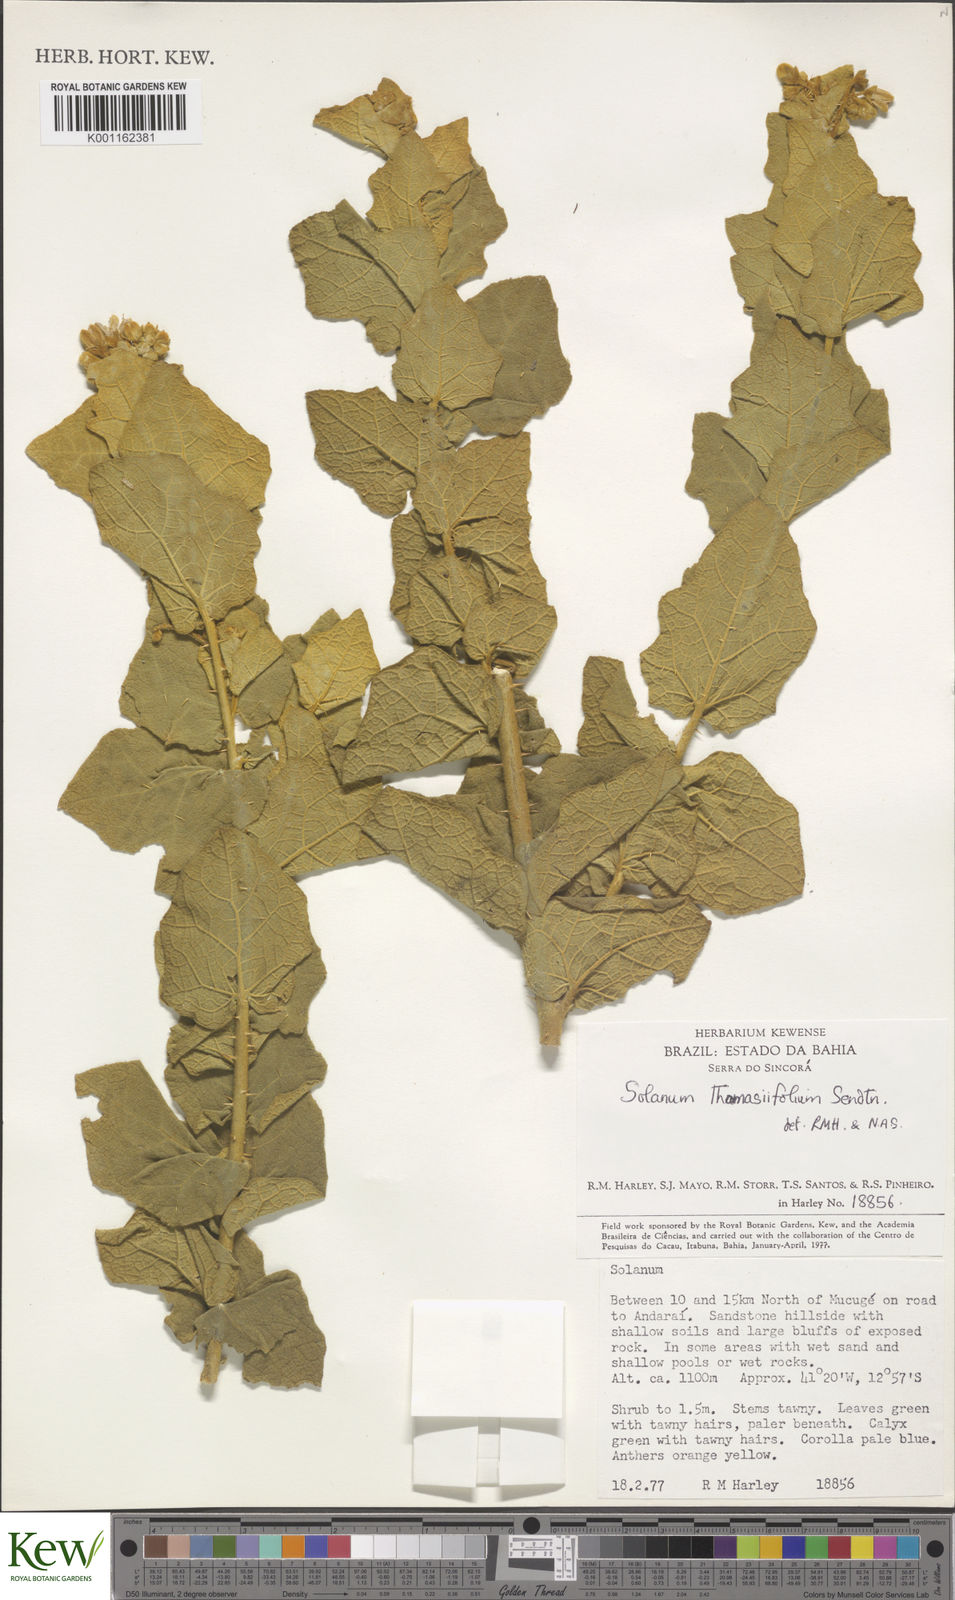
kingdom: Plantae
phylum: Tracheophyta
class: Magnoliopsida
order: Solanales
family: Solanaceae
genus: Solanum
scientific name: Solanum thomasiifolium
